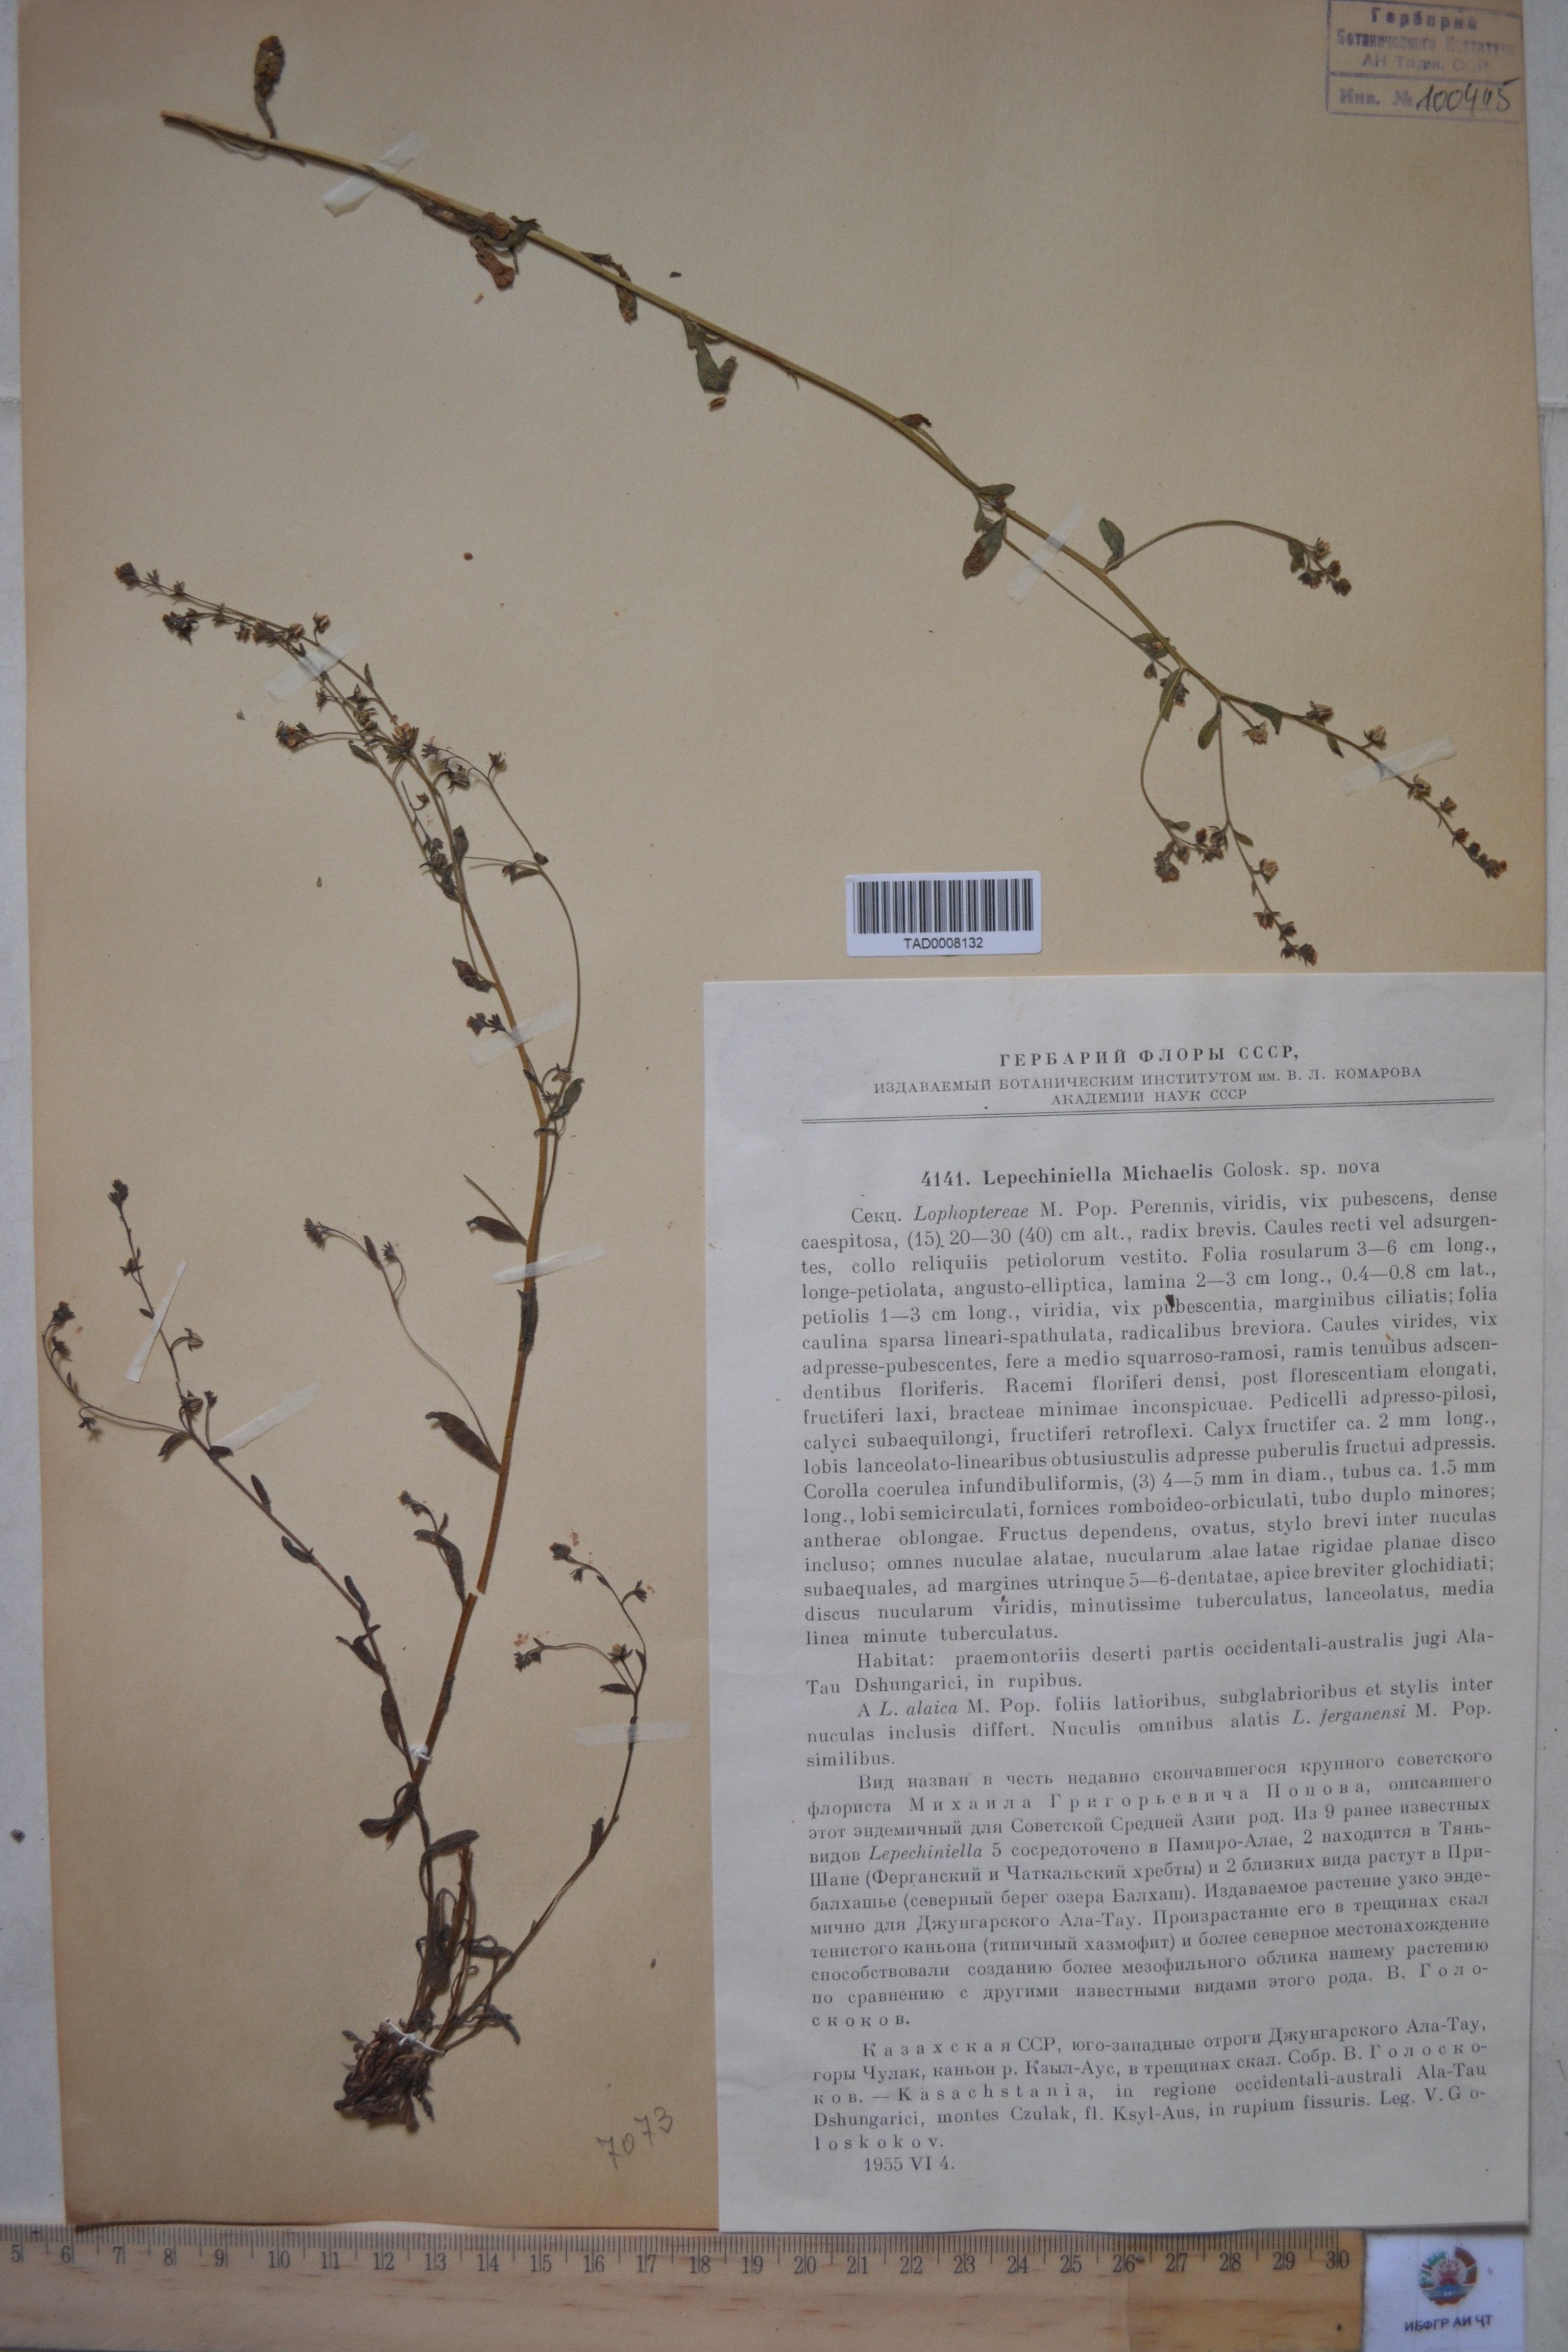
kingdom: Plantae
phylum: Tracheophyta
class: Magnoliopsida
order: Boraginales
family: Boraginaceae
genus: Lepechiniella
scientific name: Lepechiniella
